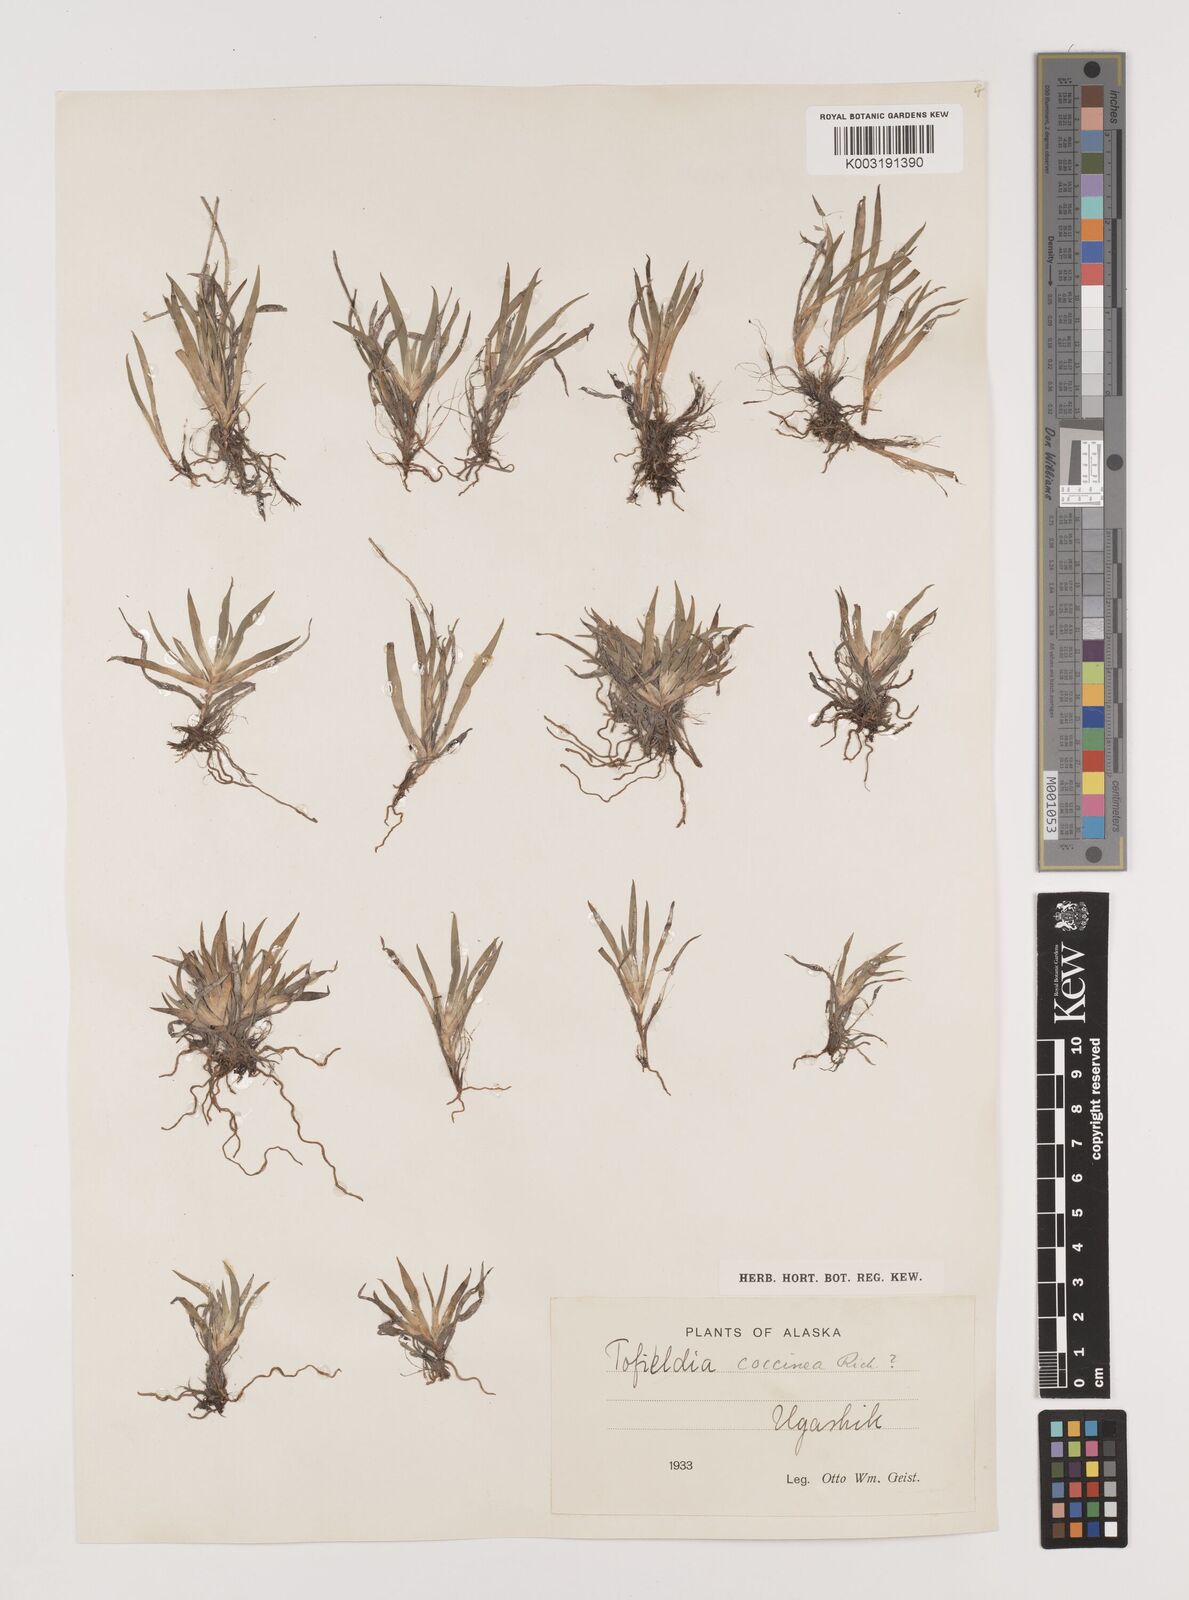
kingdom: Plantae
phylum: Tracheophyta
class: Liliopsida
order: Alismatales
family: Tofieldiaceae
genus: Tofieldia
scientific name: Tofieldia coccinea
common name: Northern false asphodel
